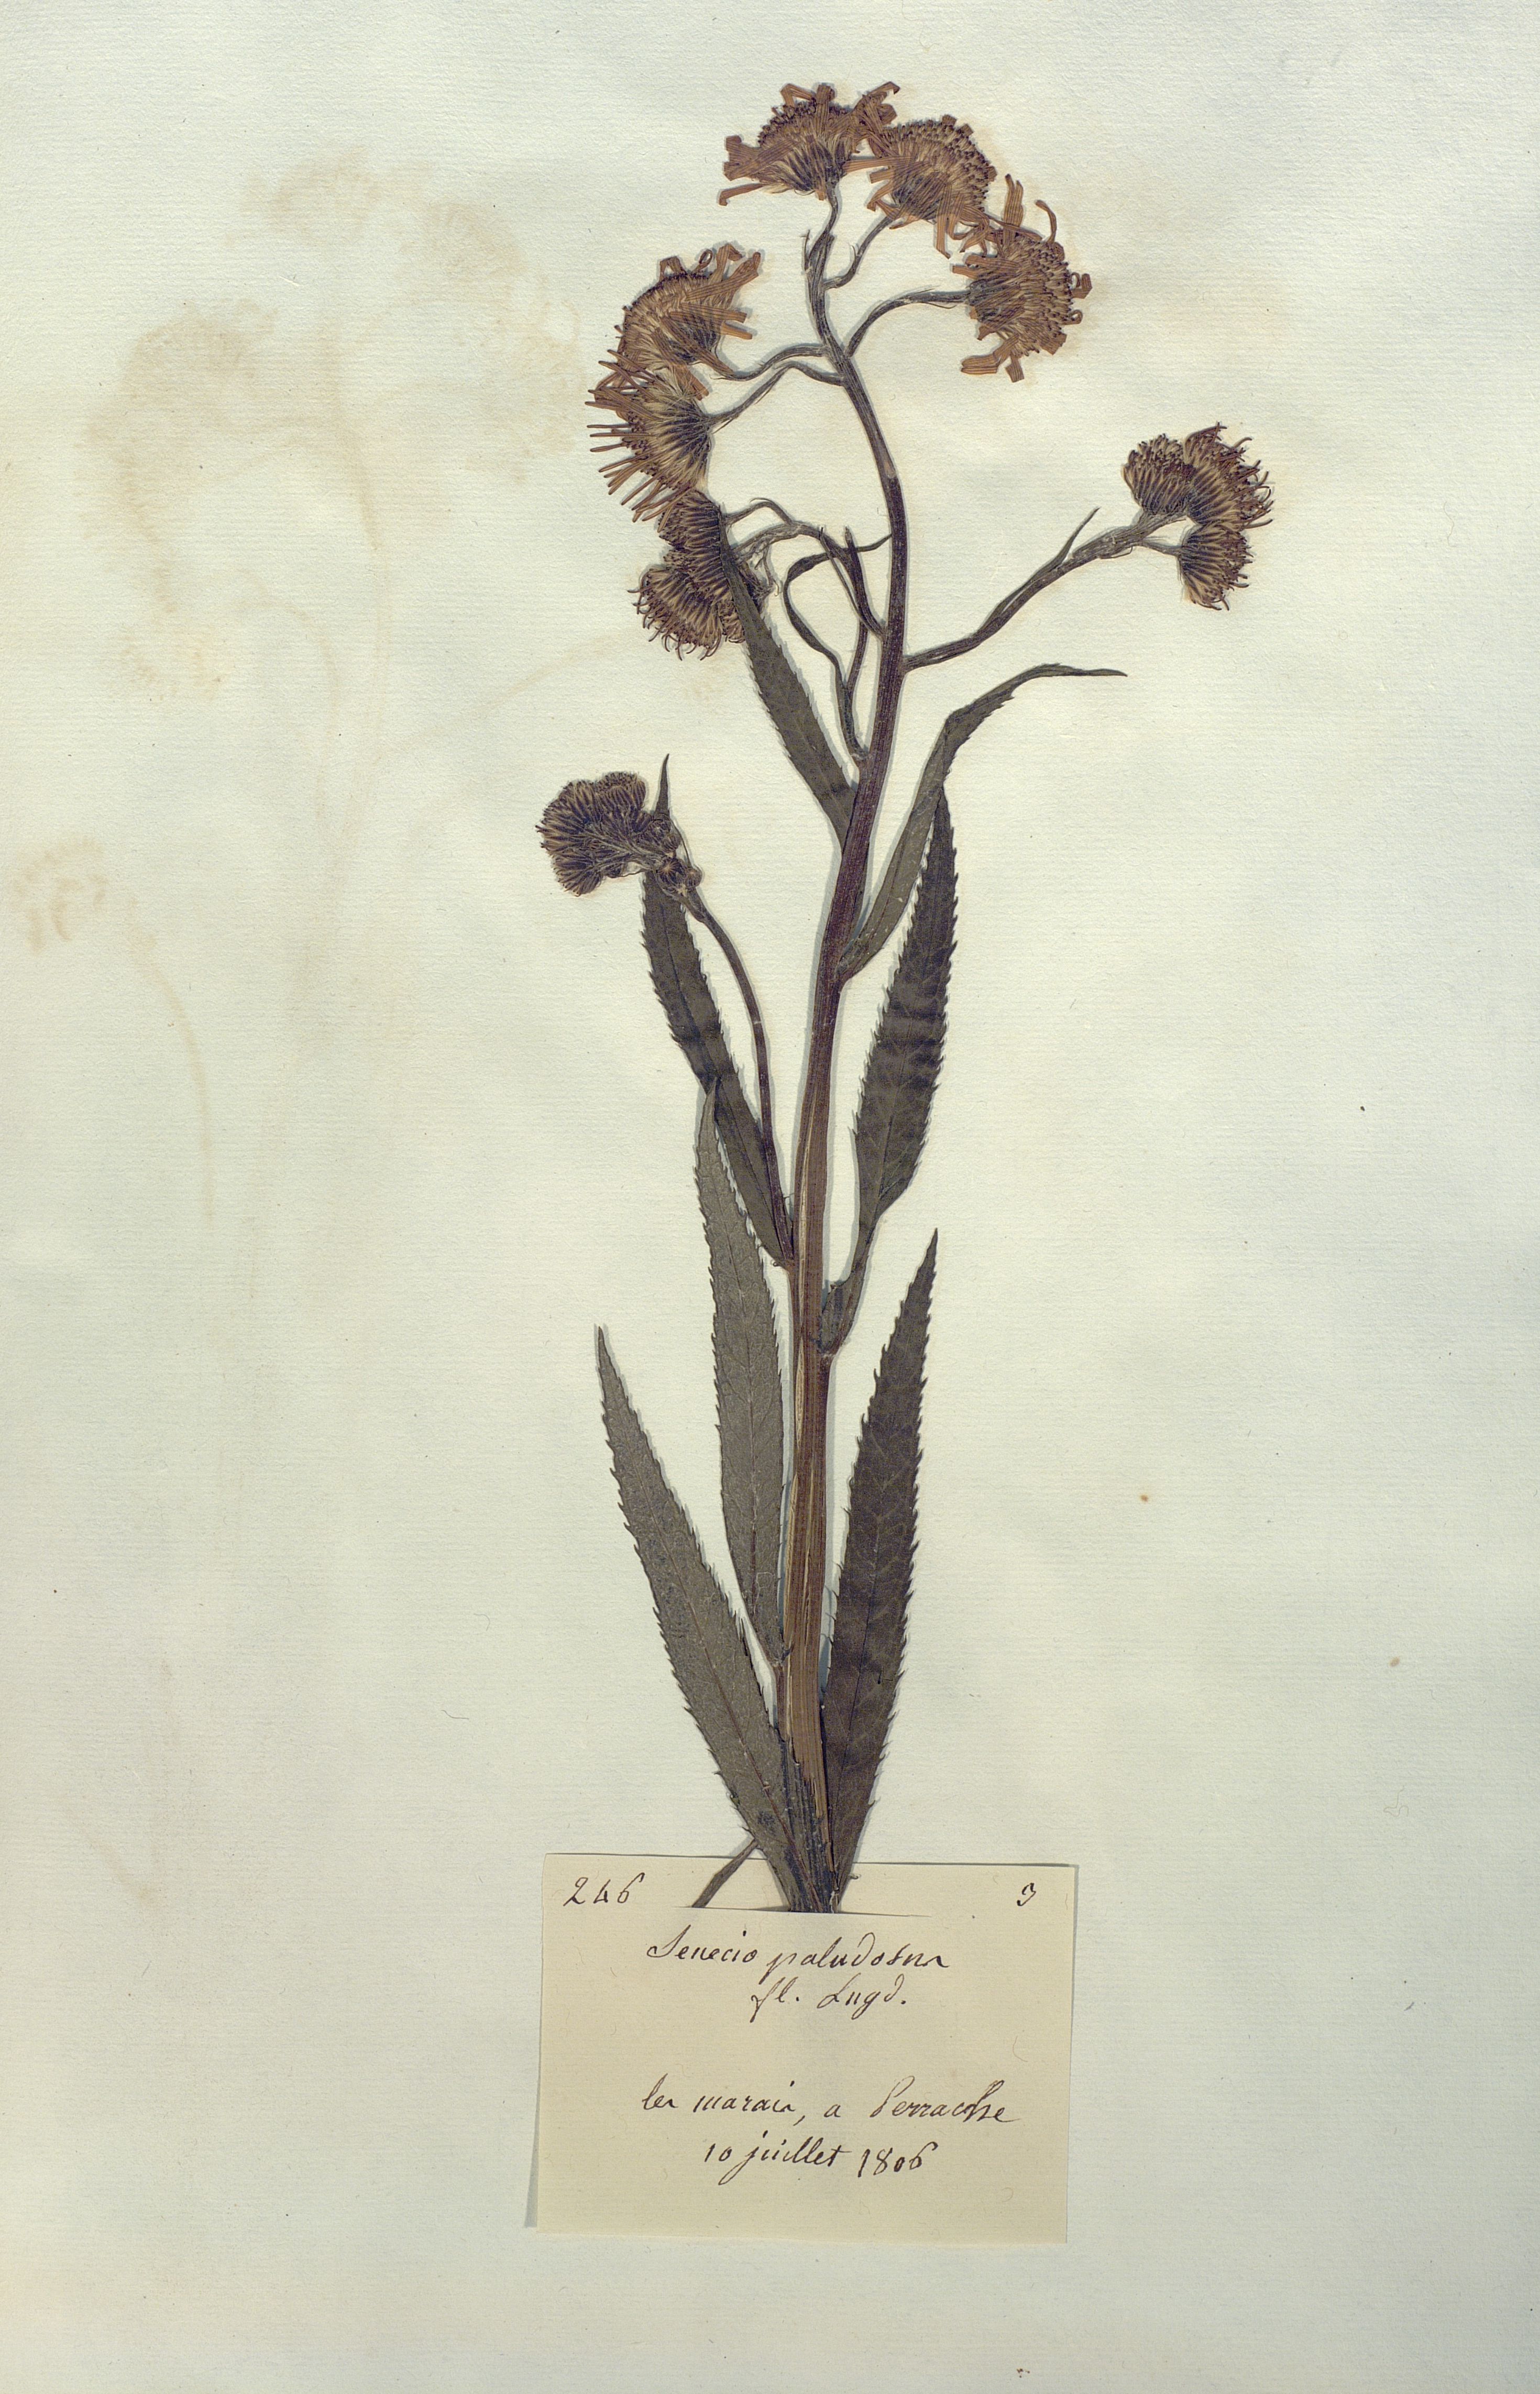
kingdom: Plantae
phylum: Tracheophyta
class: Magnoliopsida
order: Asterales
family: Asteraceae
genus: Jacobaea
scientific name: Jacobaea paludosa
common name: Fen ragwort
